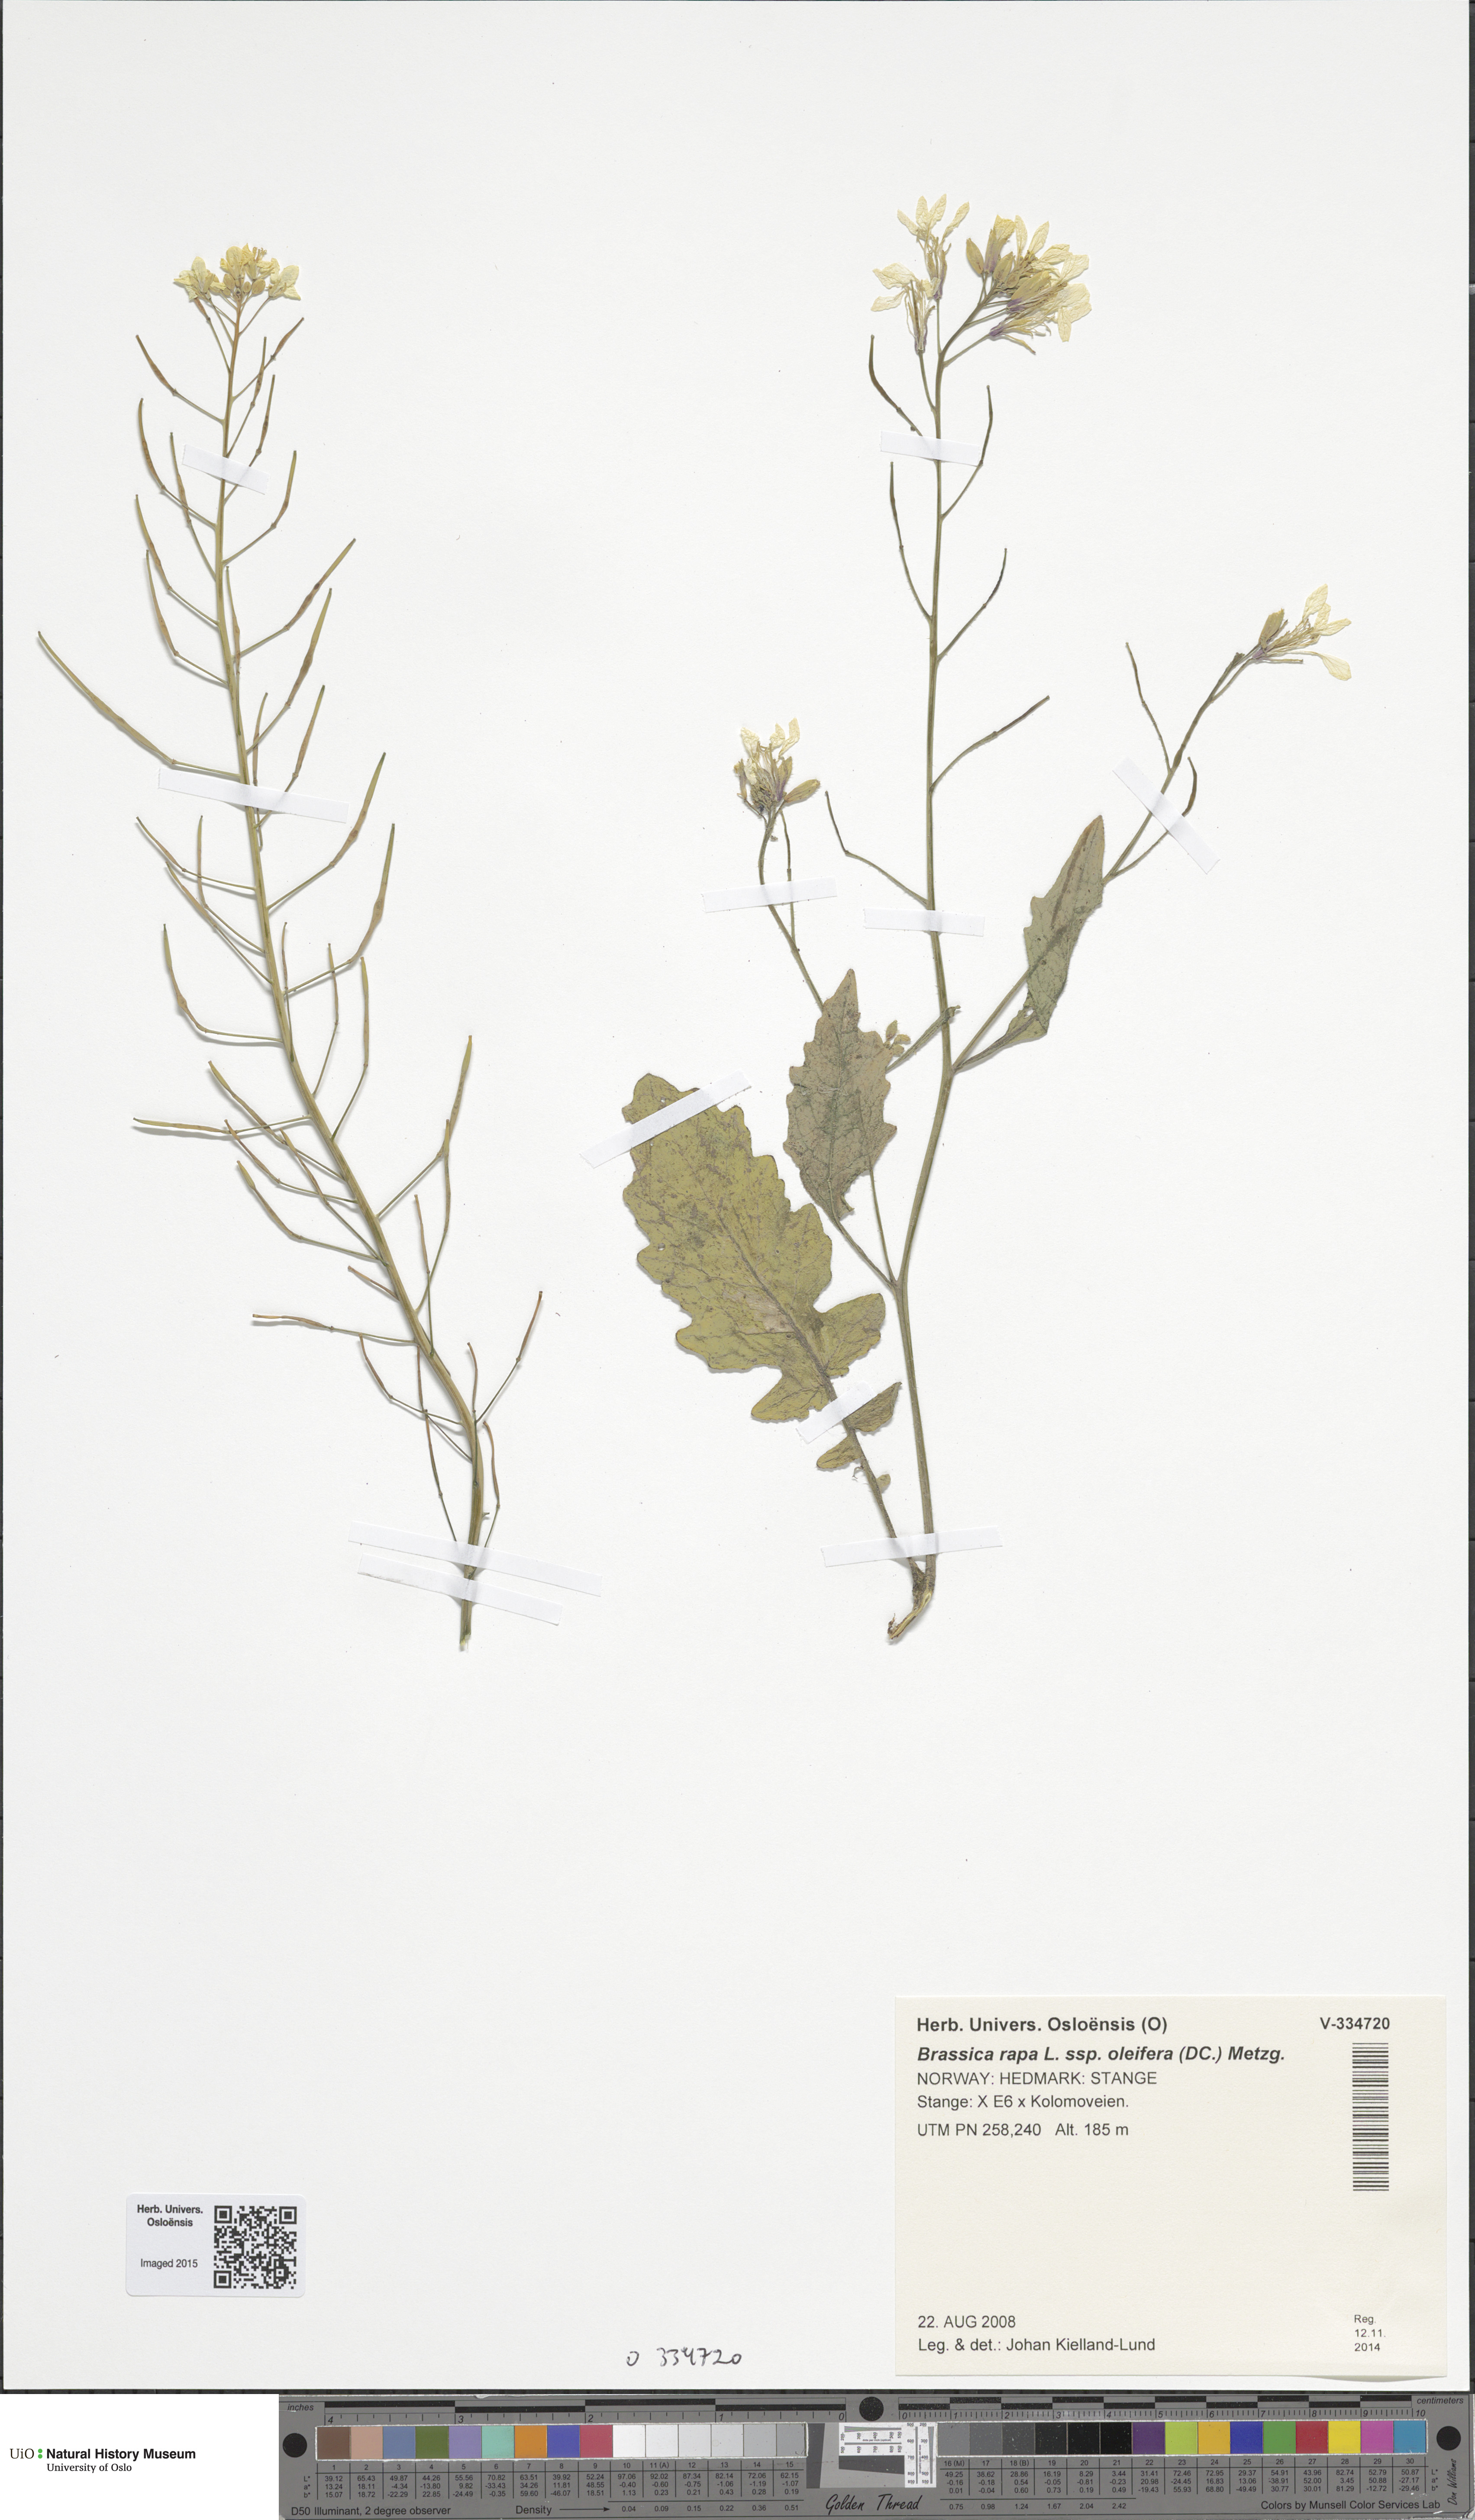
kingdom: Plantae
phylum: Tracheophyta
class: Magnoliopsida
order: Brassicales
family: Brassicaceae
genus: Brassica
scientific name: Brassica rapa
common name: Field mustard
